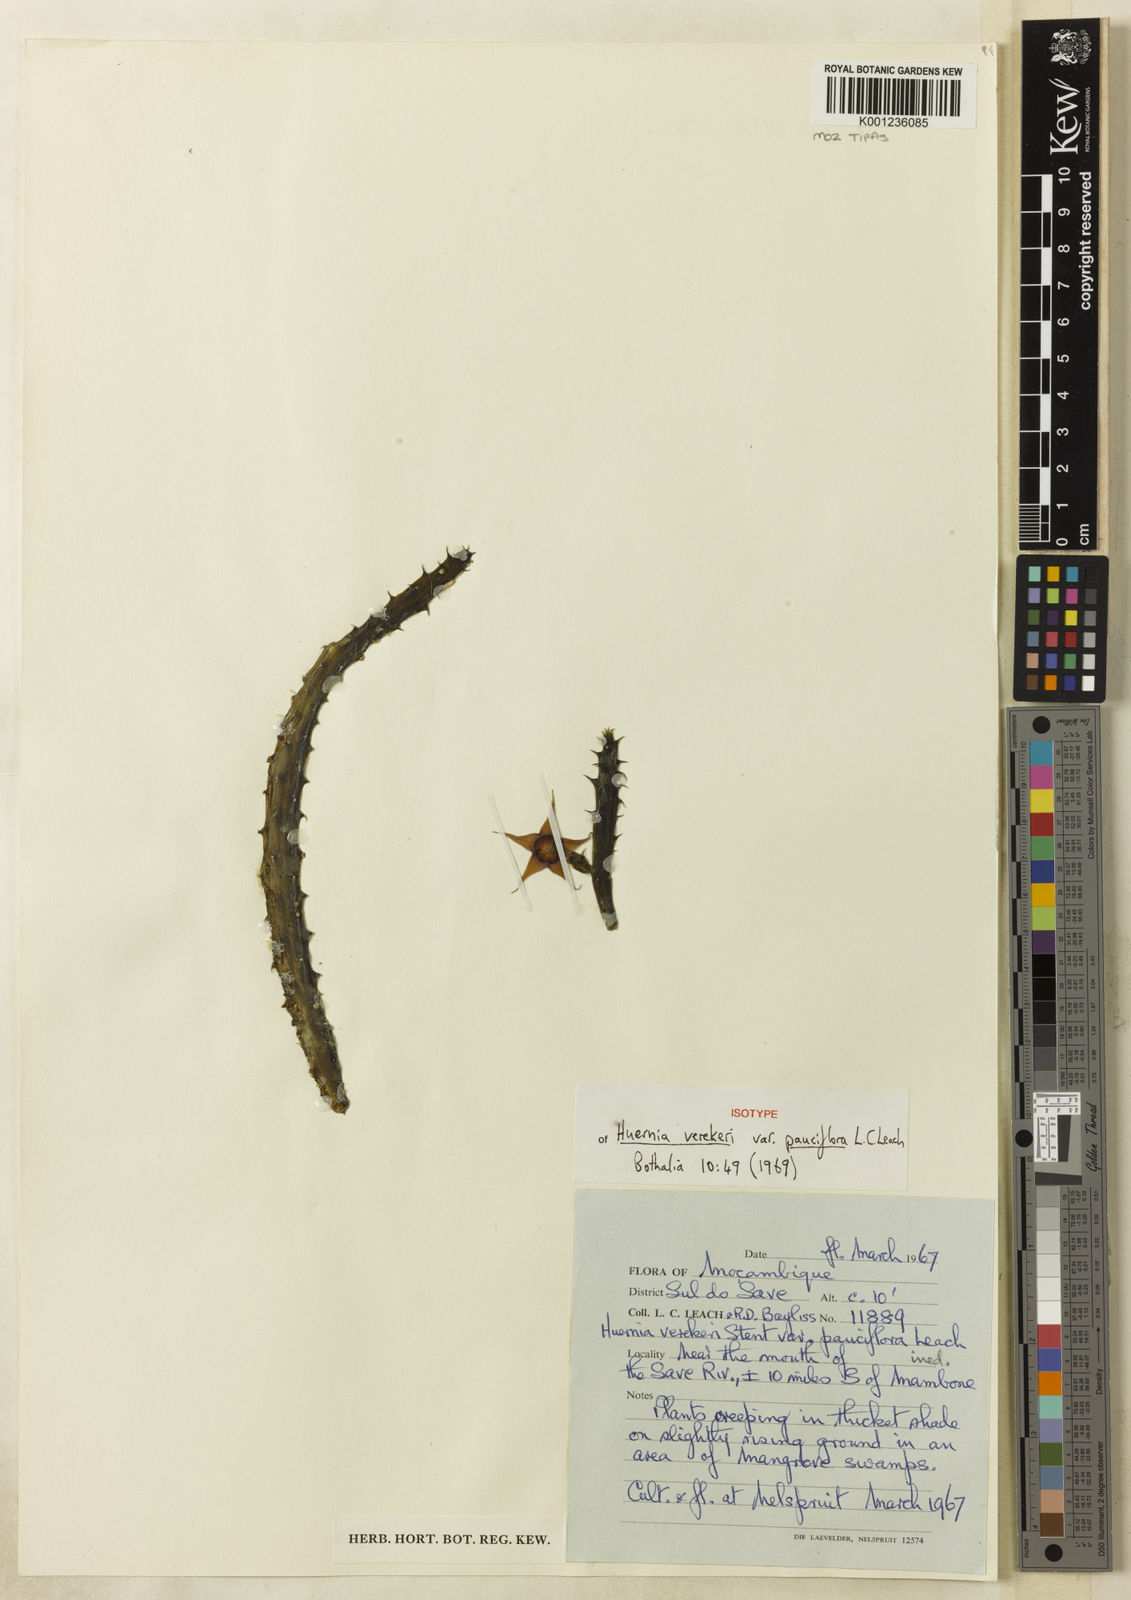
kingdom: Plantae
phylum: Tracheophyta
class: Magnoliopsida
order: Gentianales
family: Apocynaceae
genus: Ceropegia
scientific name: Ceropegia verekeri
